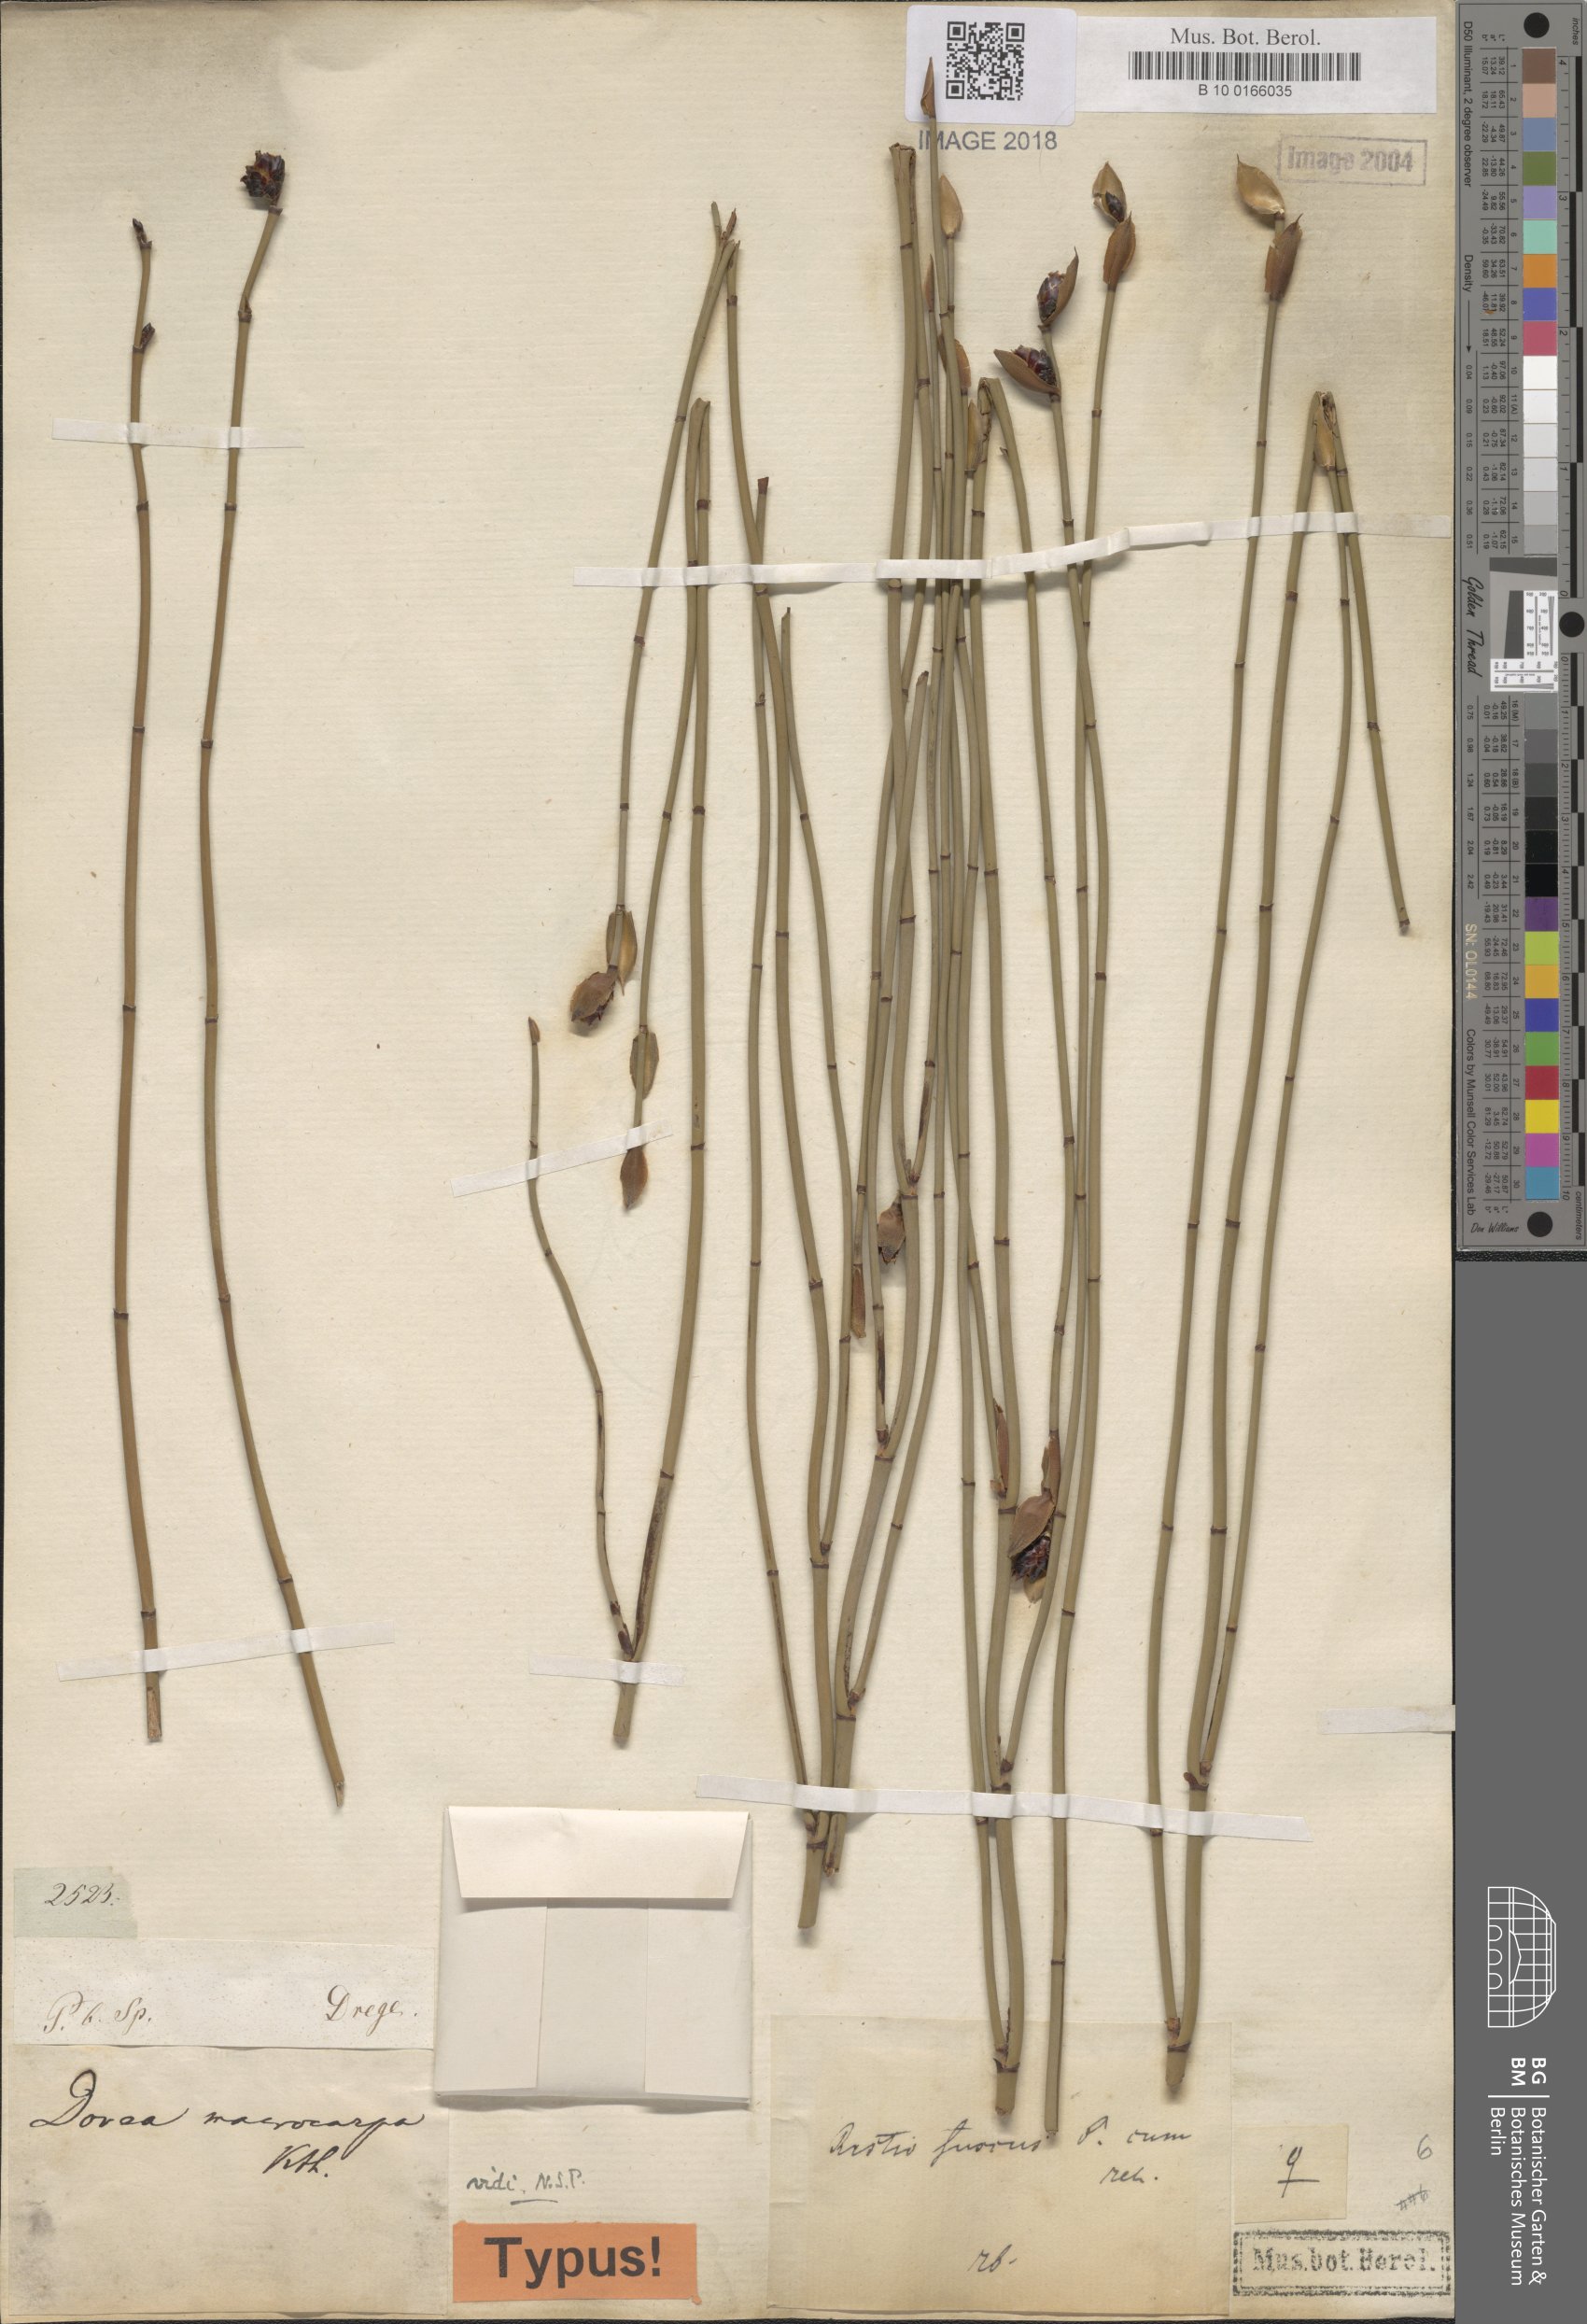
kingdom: Plantae
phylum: Tracheophyta
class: Liliopsida
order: Poales
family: Restionaceae
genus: Elegia
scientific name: Elegia macrocarpa
